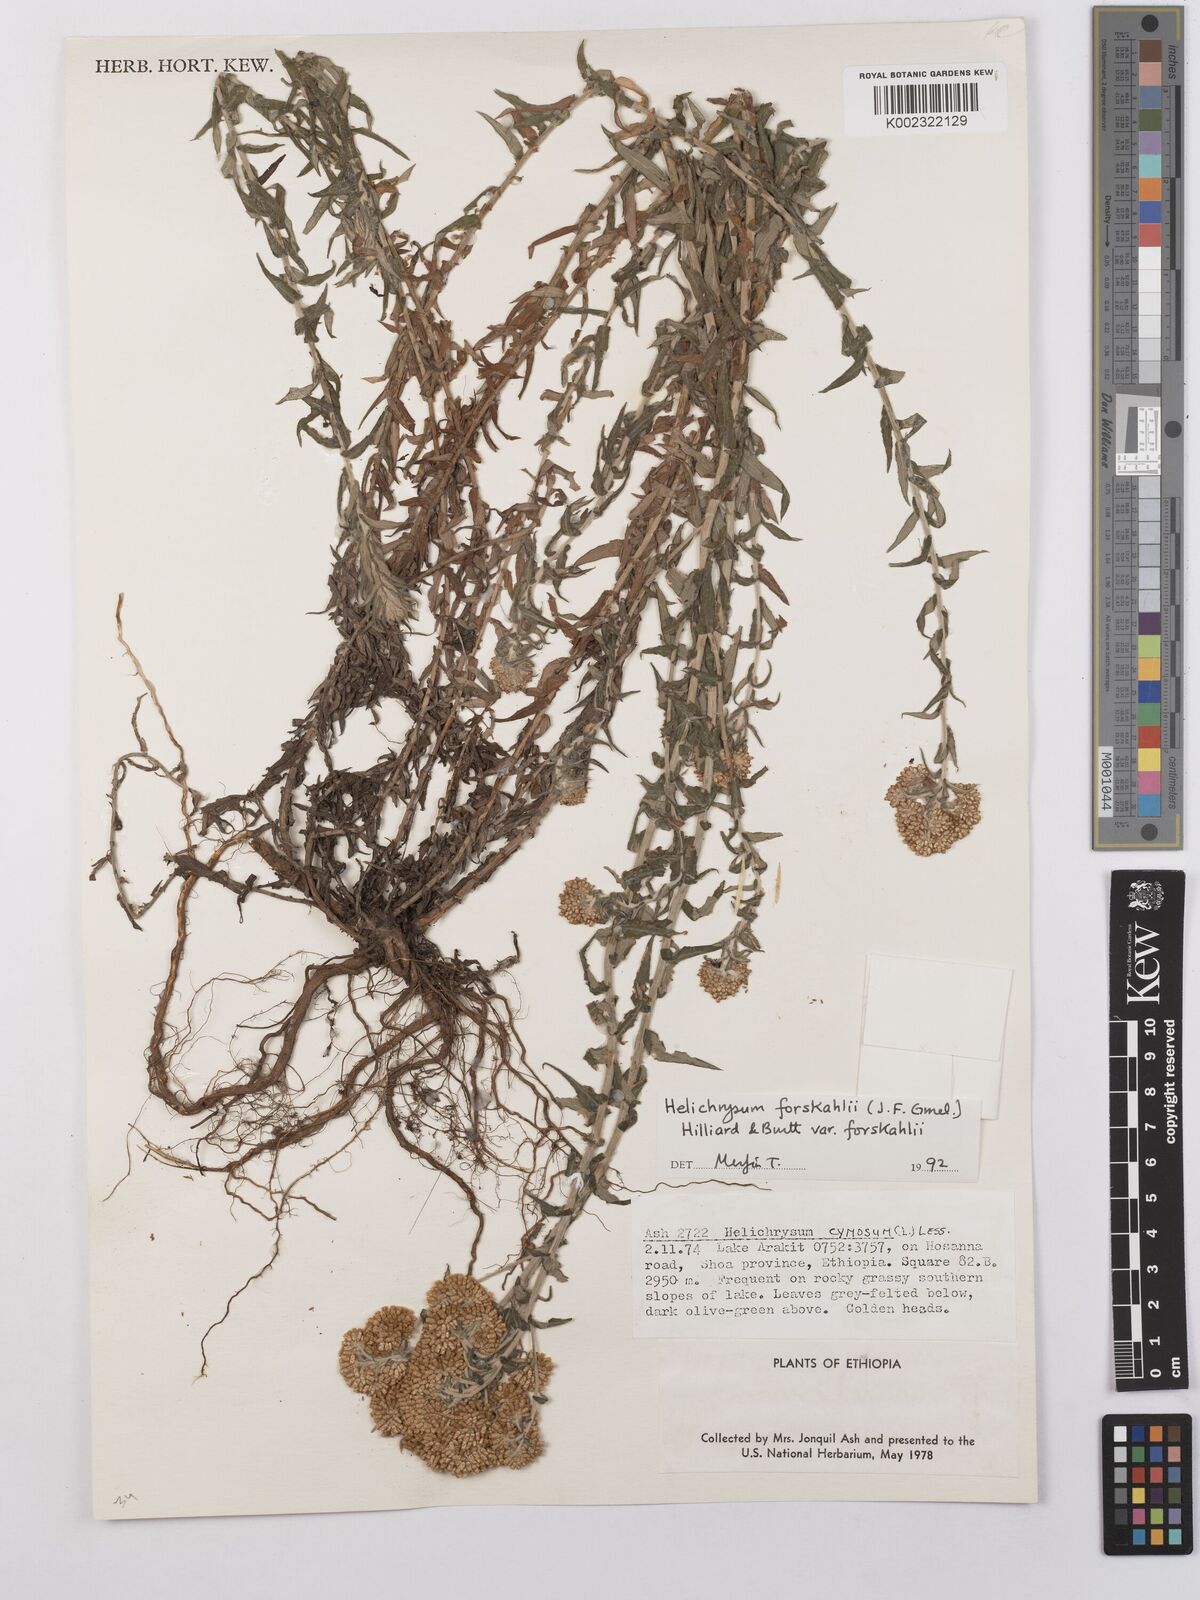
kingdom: Plantae
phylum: Tracheophyta
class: Magnoliopsida
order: Asterales
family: Asteraceae
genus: Helichrysum
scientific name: Helichrysum forskahlii
